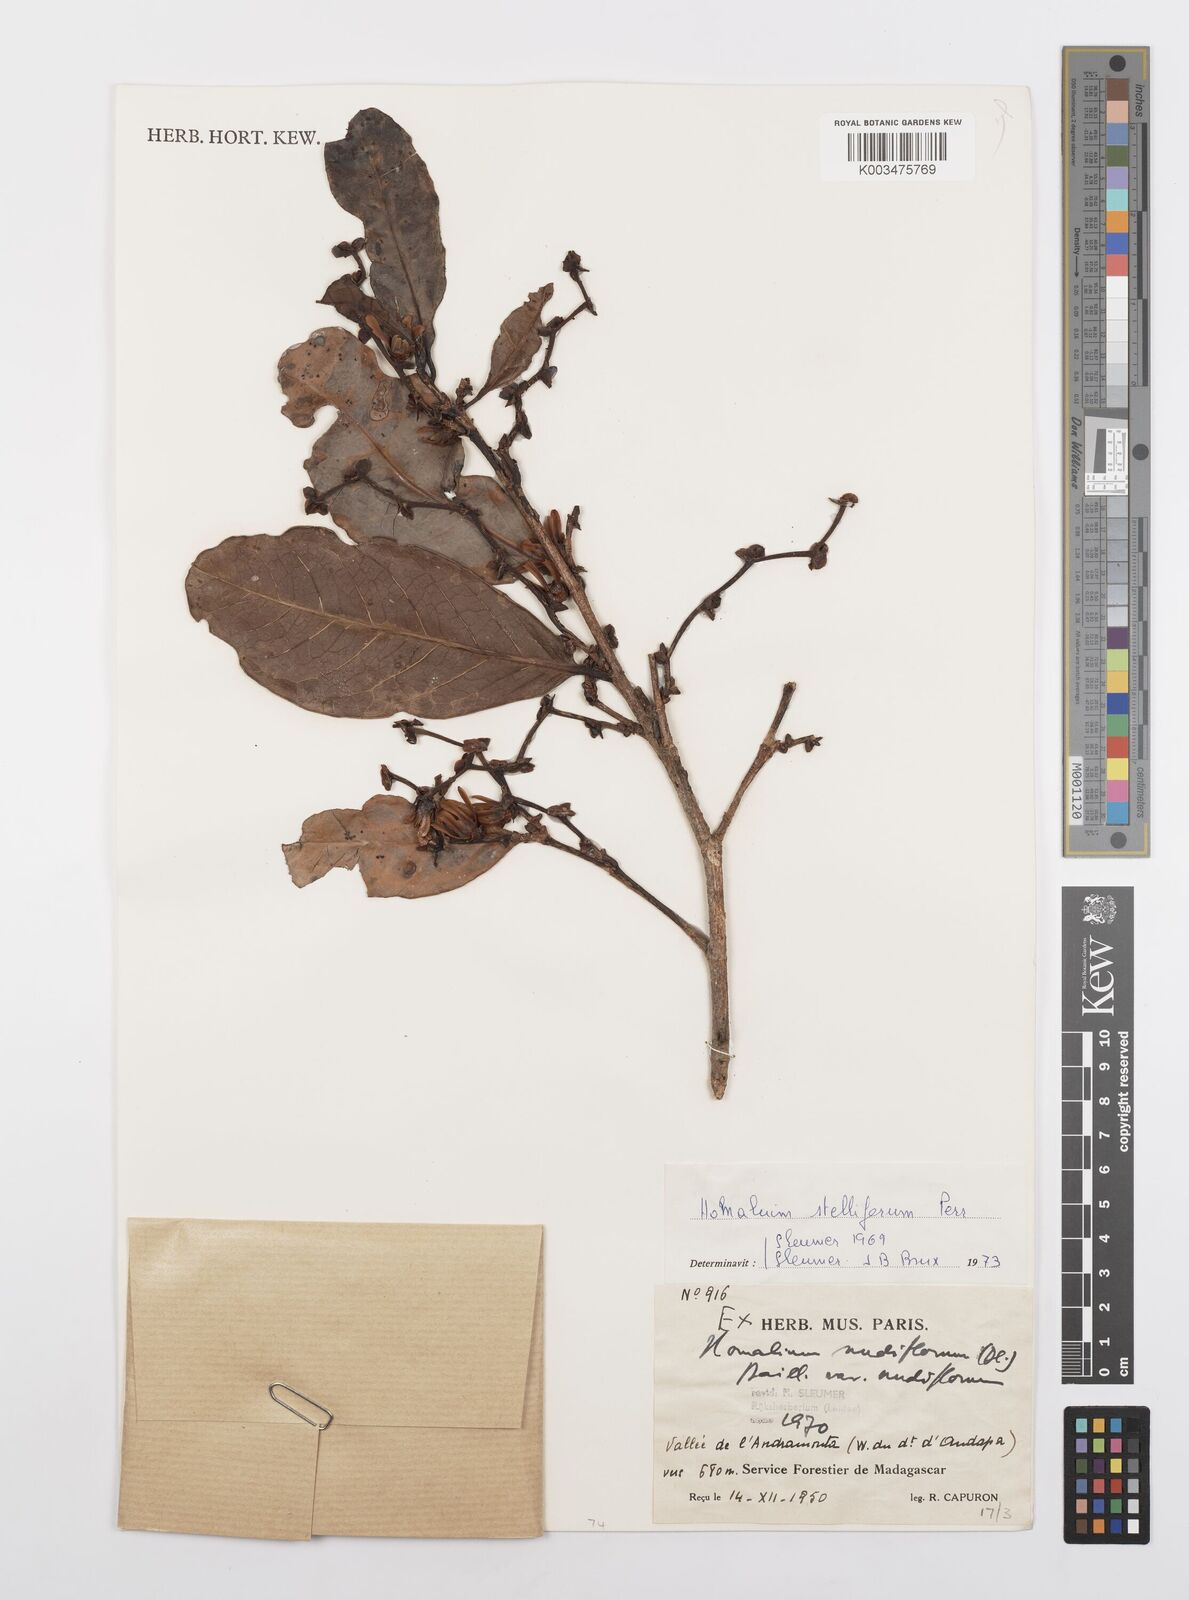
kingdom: Plantae
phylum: Tracheophyta
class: Magnoliopsida
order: Malpighiales
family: Salicaceae
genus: Homalium
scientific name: Homalium stelliferum
